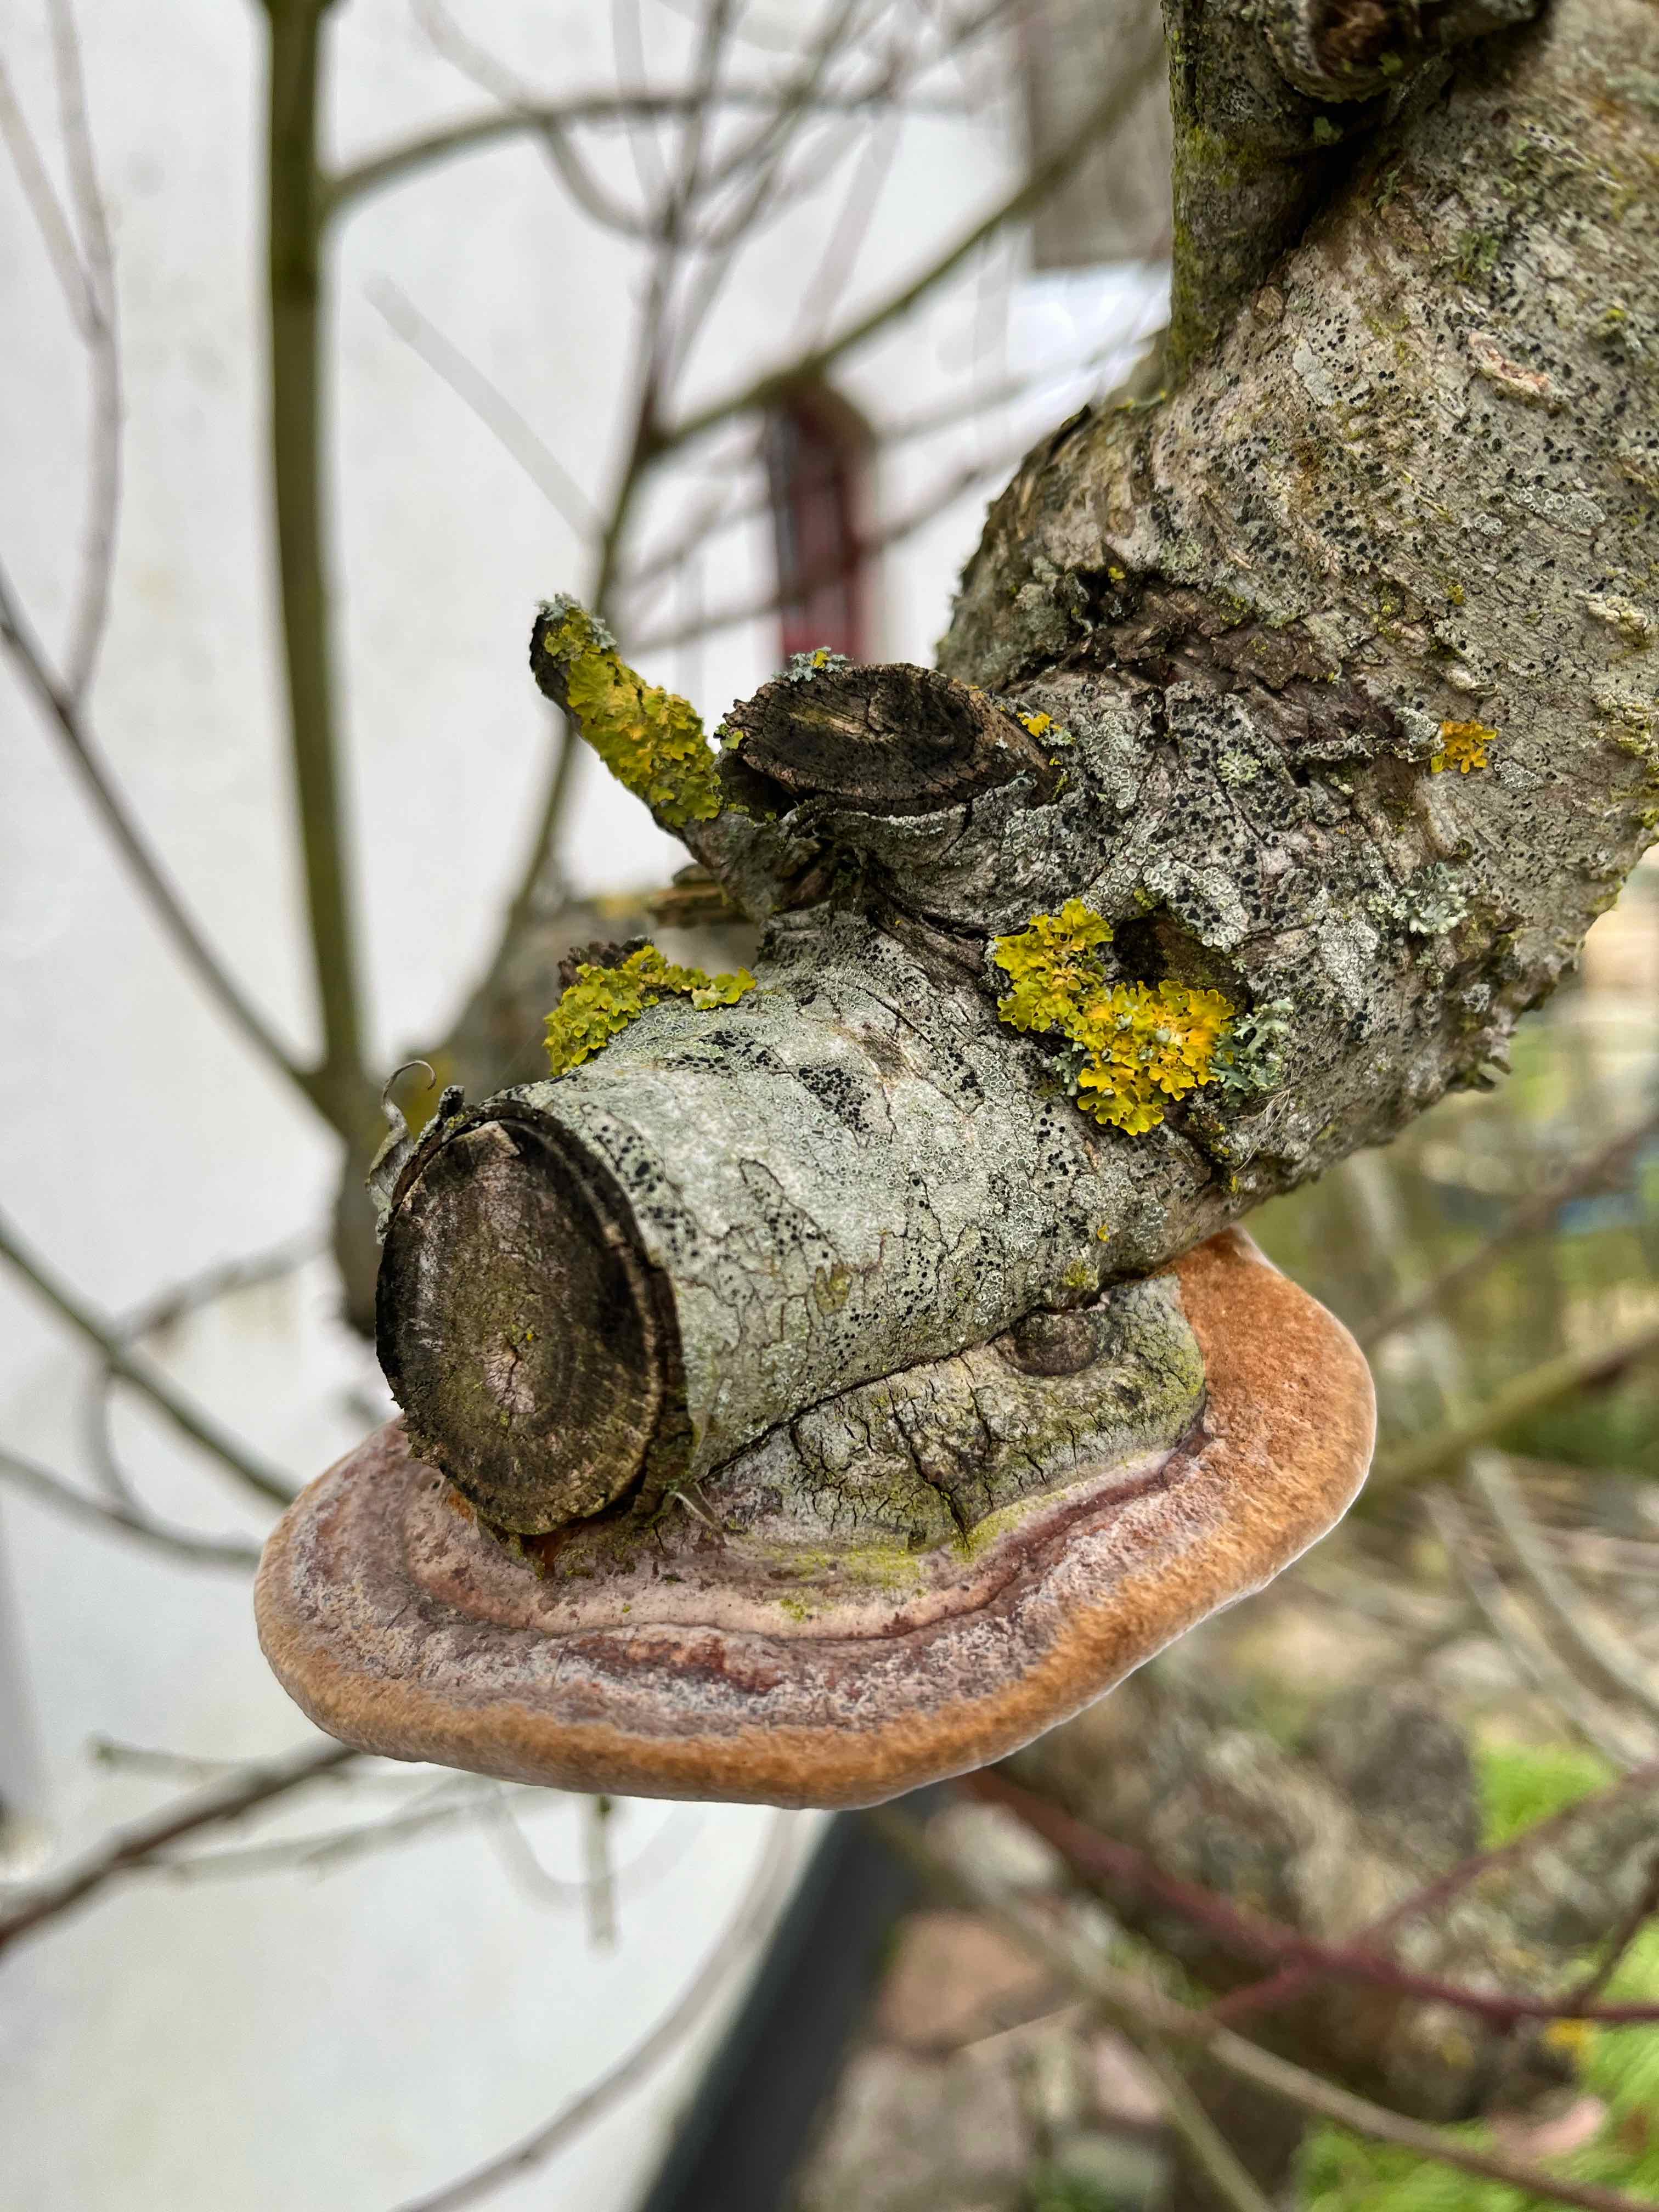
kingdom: Fungi
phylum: Basidiomycota
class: Agaricomycetes
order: Hymenochaetales
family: Hymenochaetaceae
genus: Phellinus
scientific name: Phellinus pomaceus
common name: blomme-ildporesvamp
